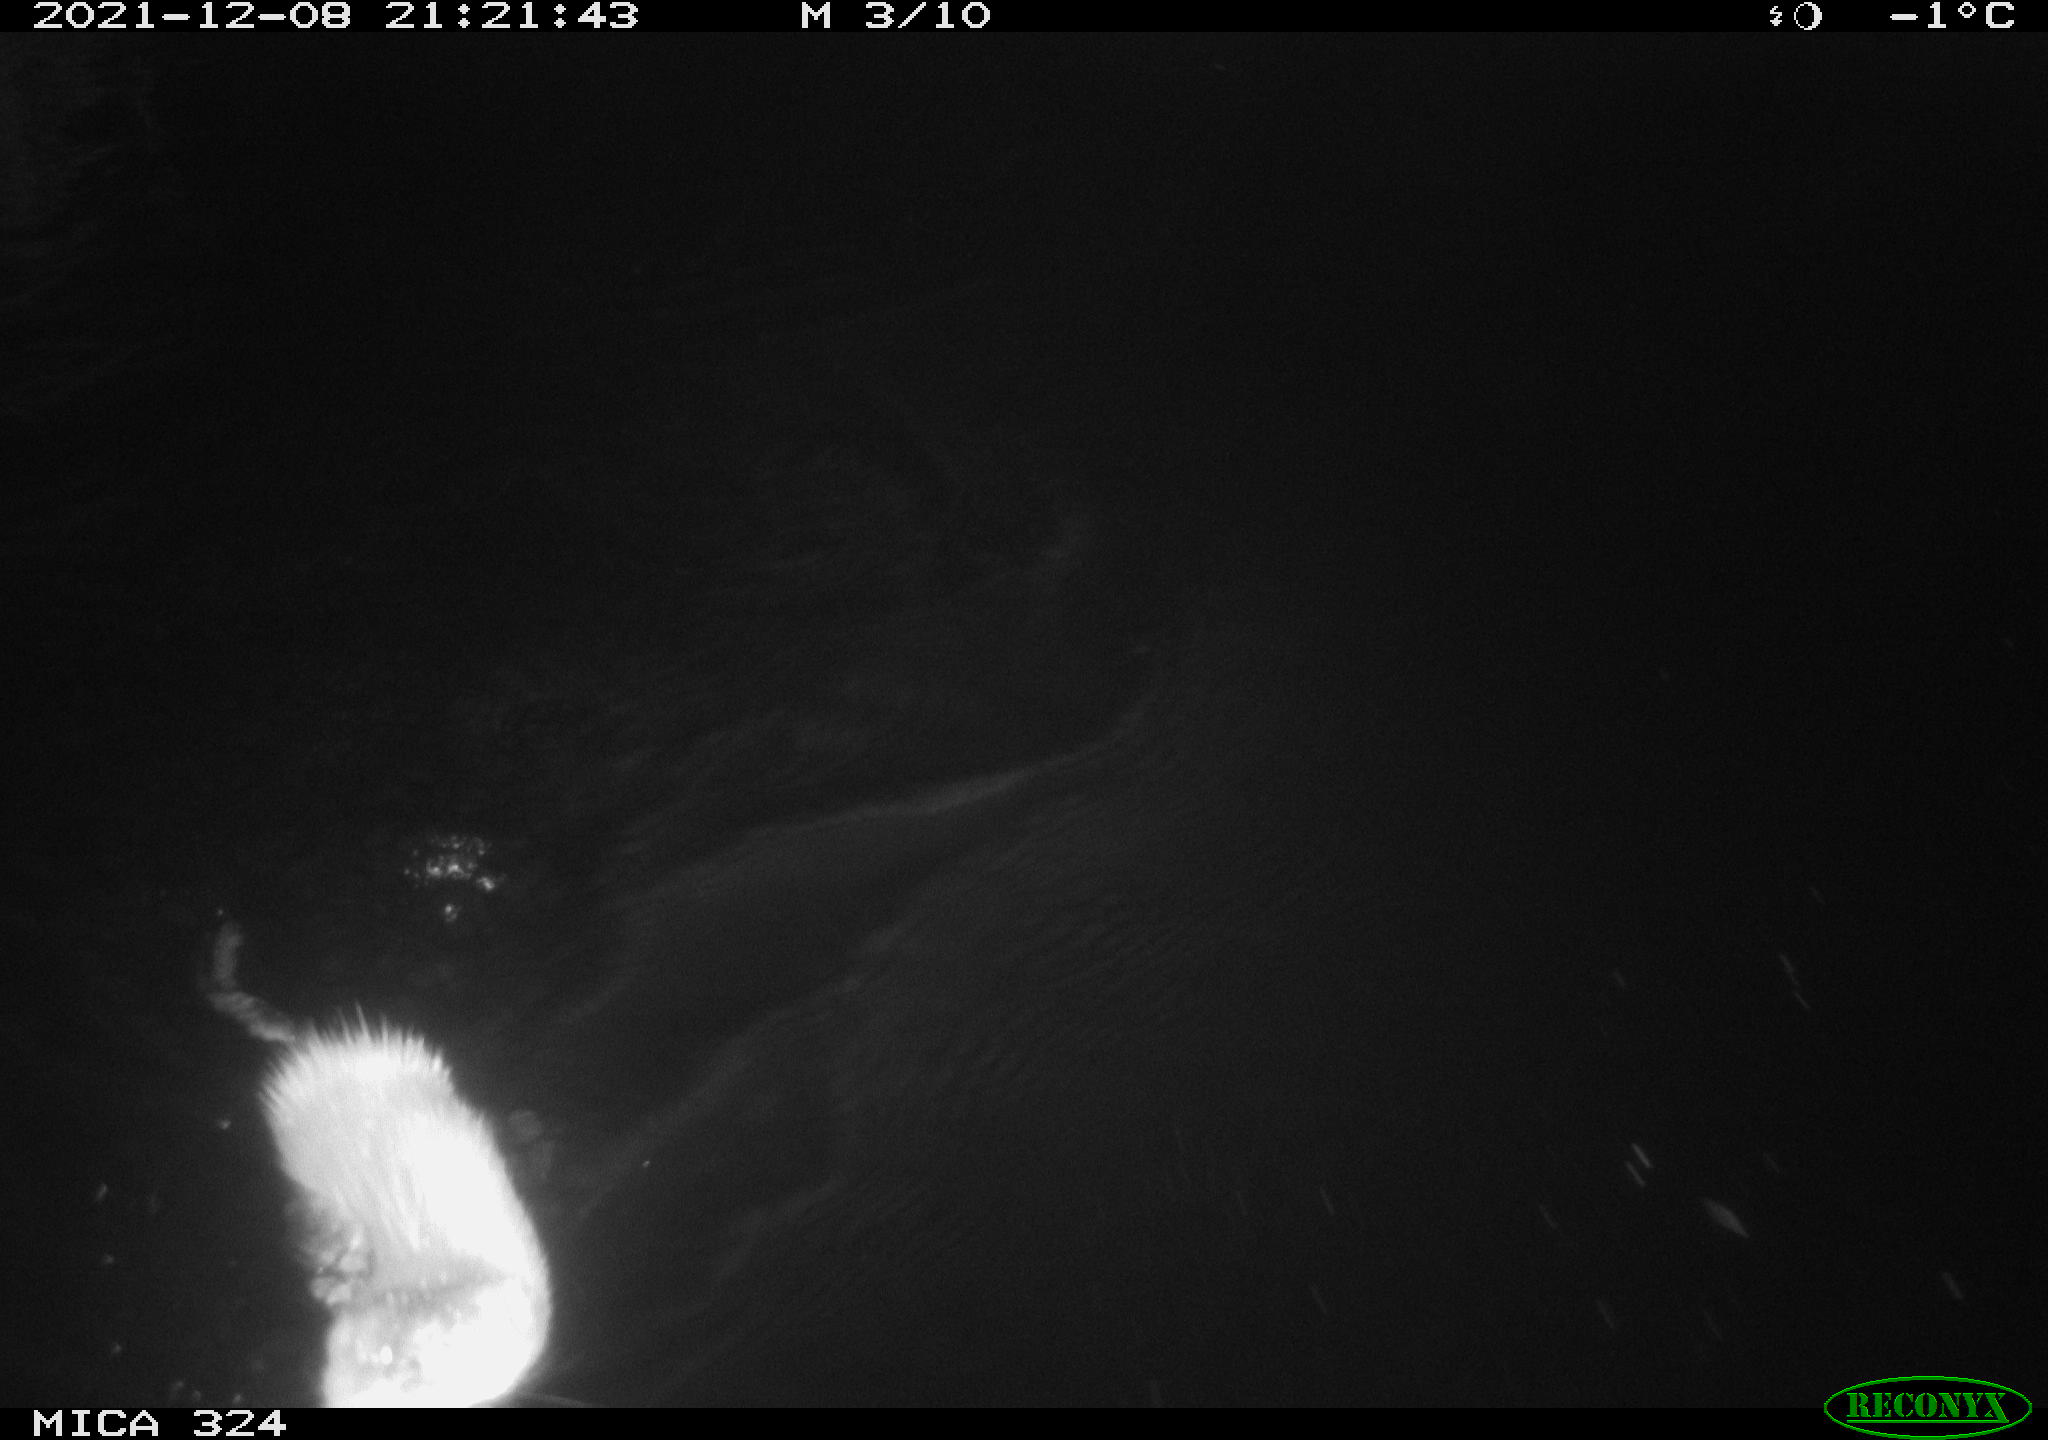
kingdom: Animalia
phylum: Chordata
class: Mammalia
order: Rodentia
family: Cricetidae
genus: Ondatra
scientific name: Ondatra zibethicus
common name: Muskrat
